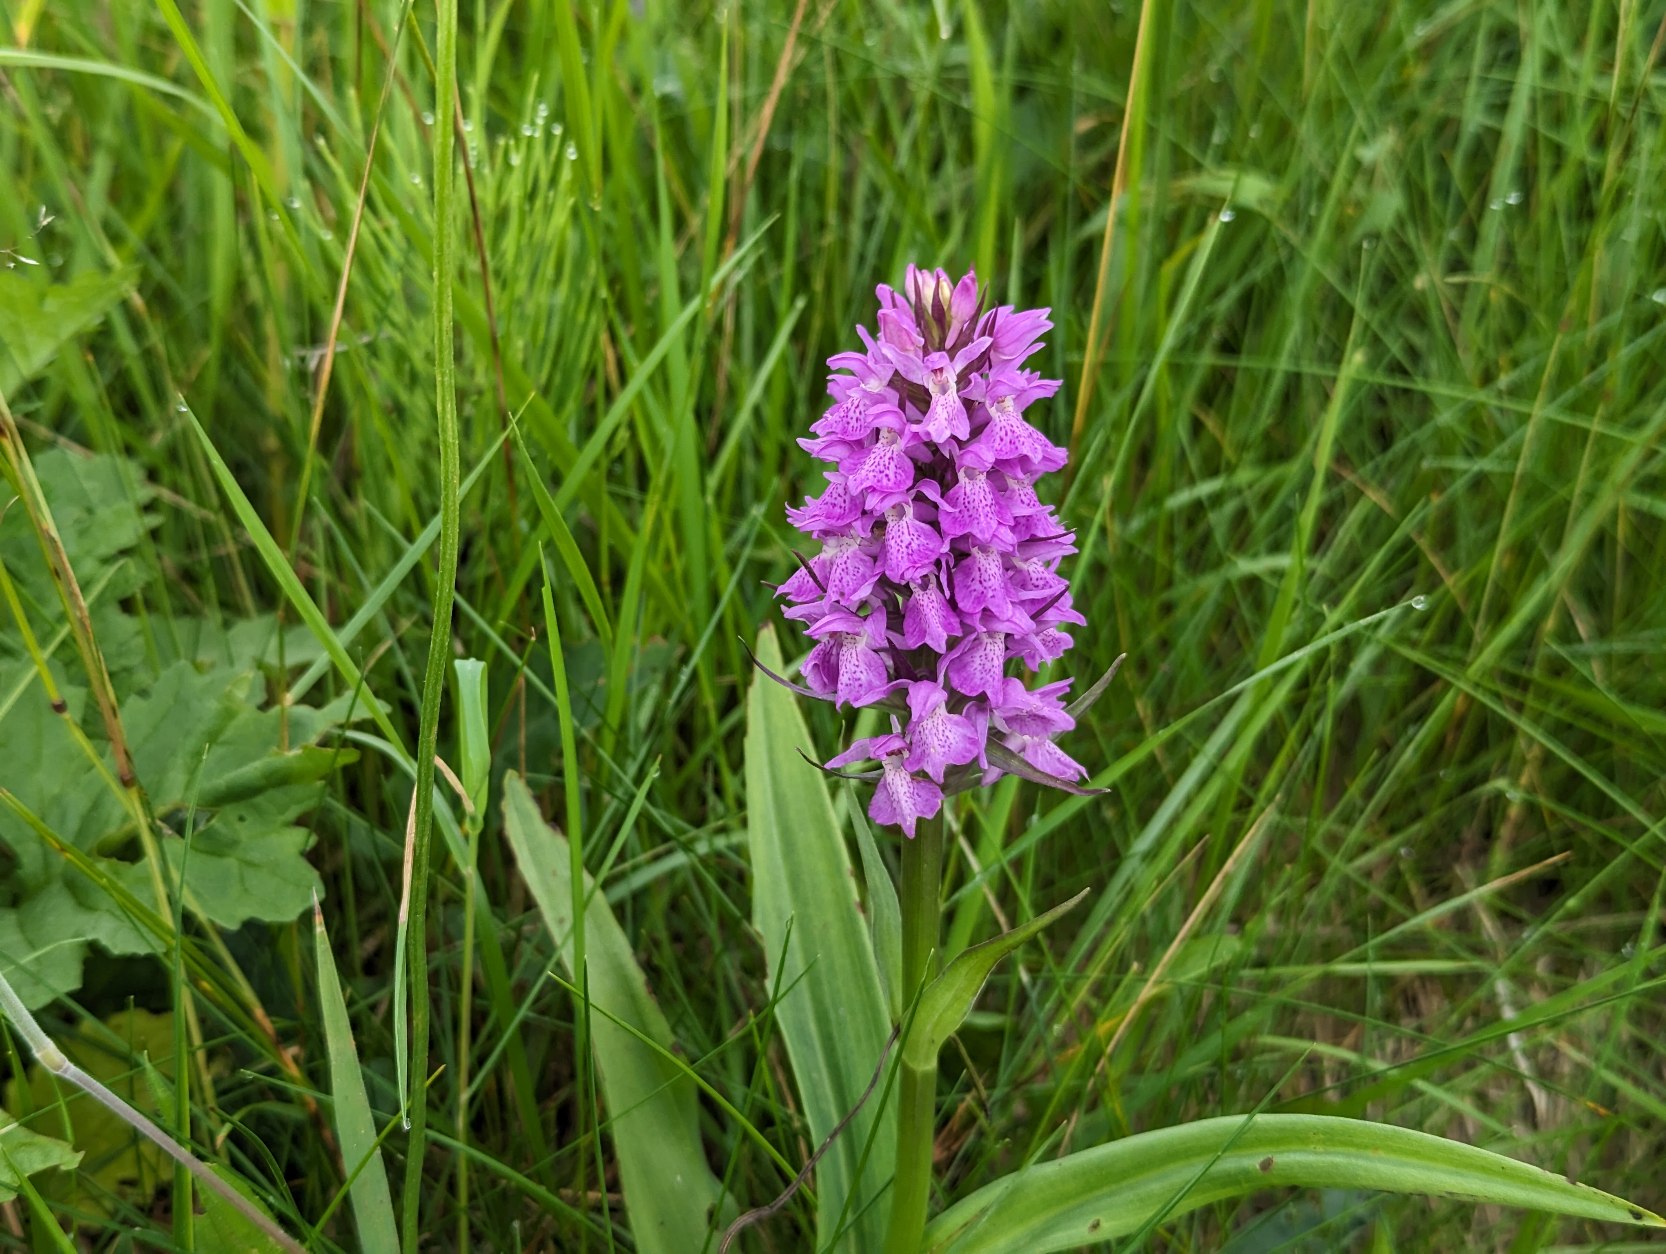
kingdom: Plantae
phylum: Tracheophyta
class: Liliopsida
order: Asparagales
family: Orchidaceae
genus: Dactylorhiza
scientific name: Dactylorhiza majalis
